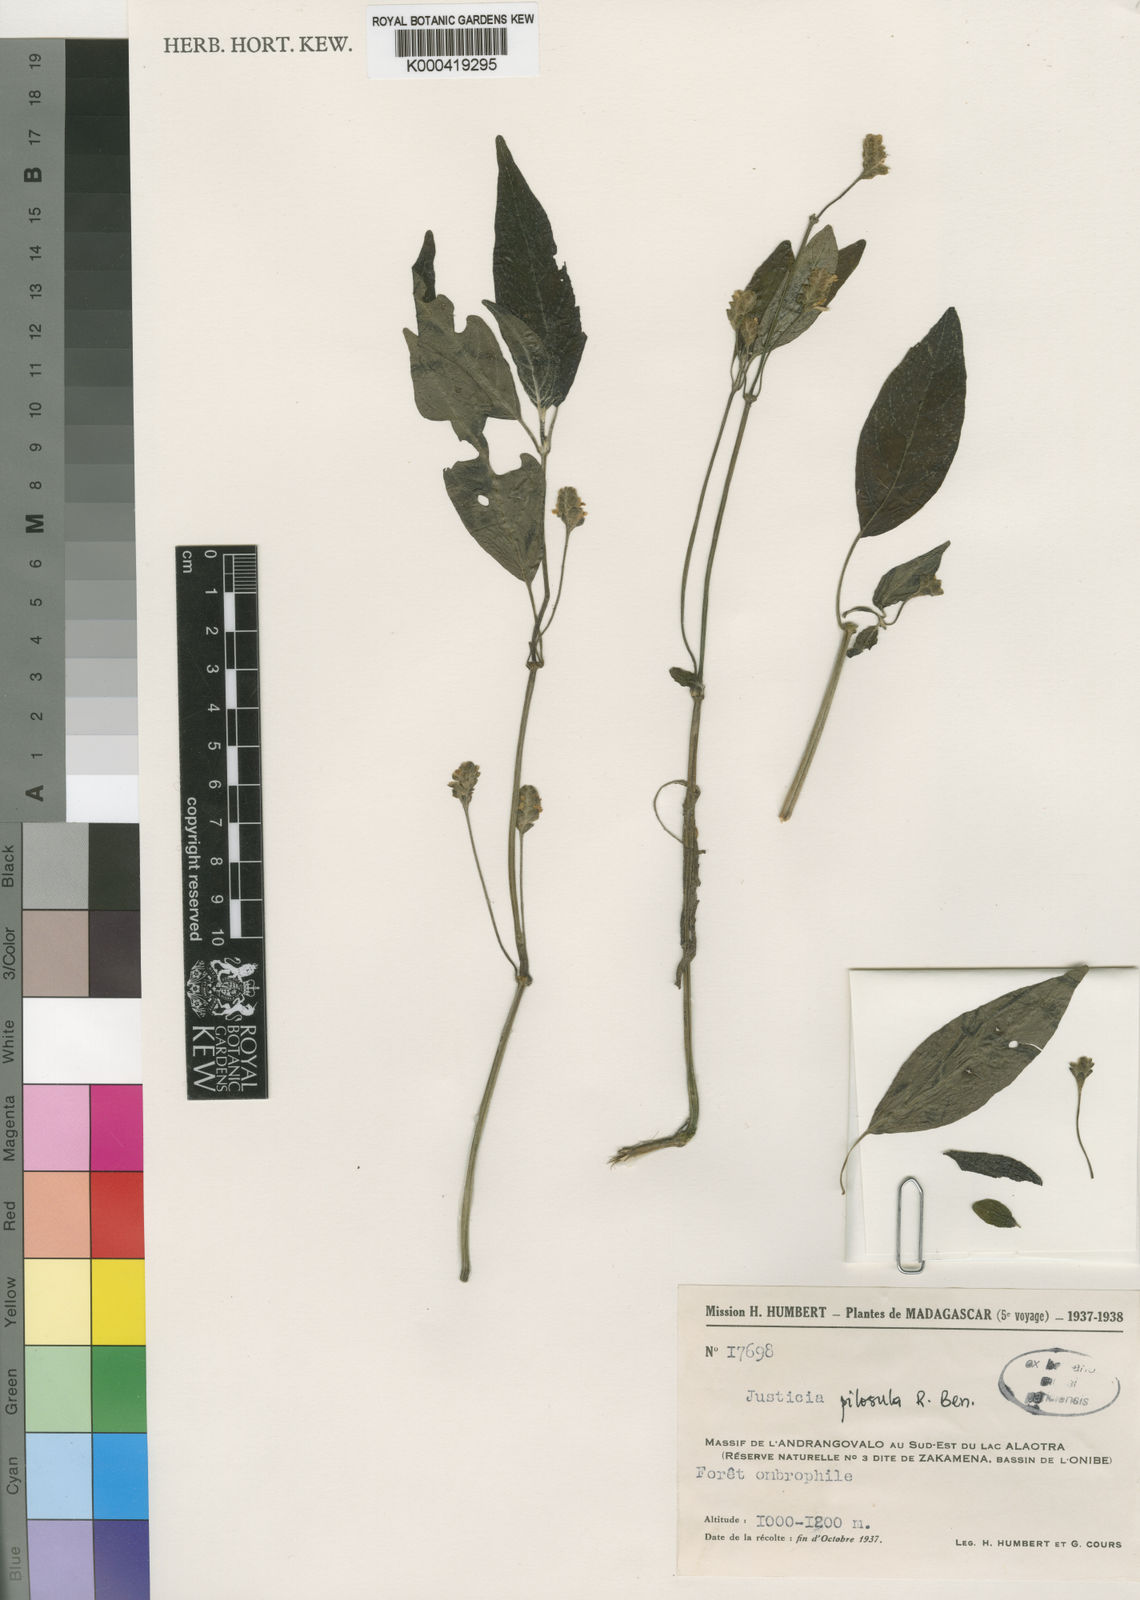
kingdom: Plantae
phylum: Tracheophyta
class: Magnoliopsida
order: Lamiales
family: Acanthaceae
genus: Justicia
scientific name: Justicia pilosula
